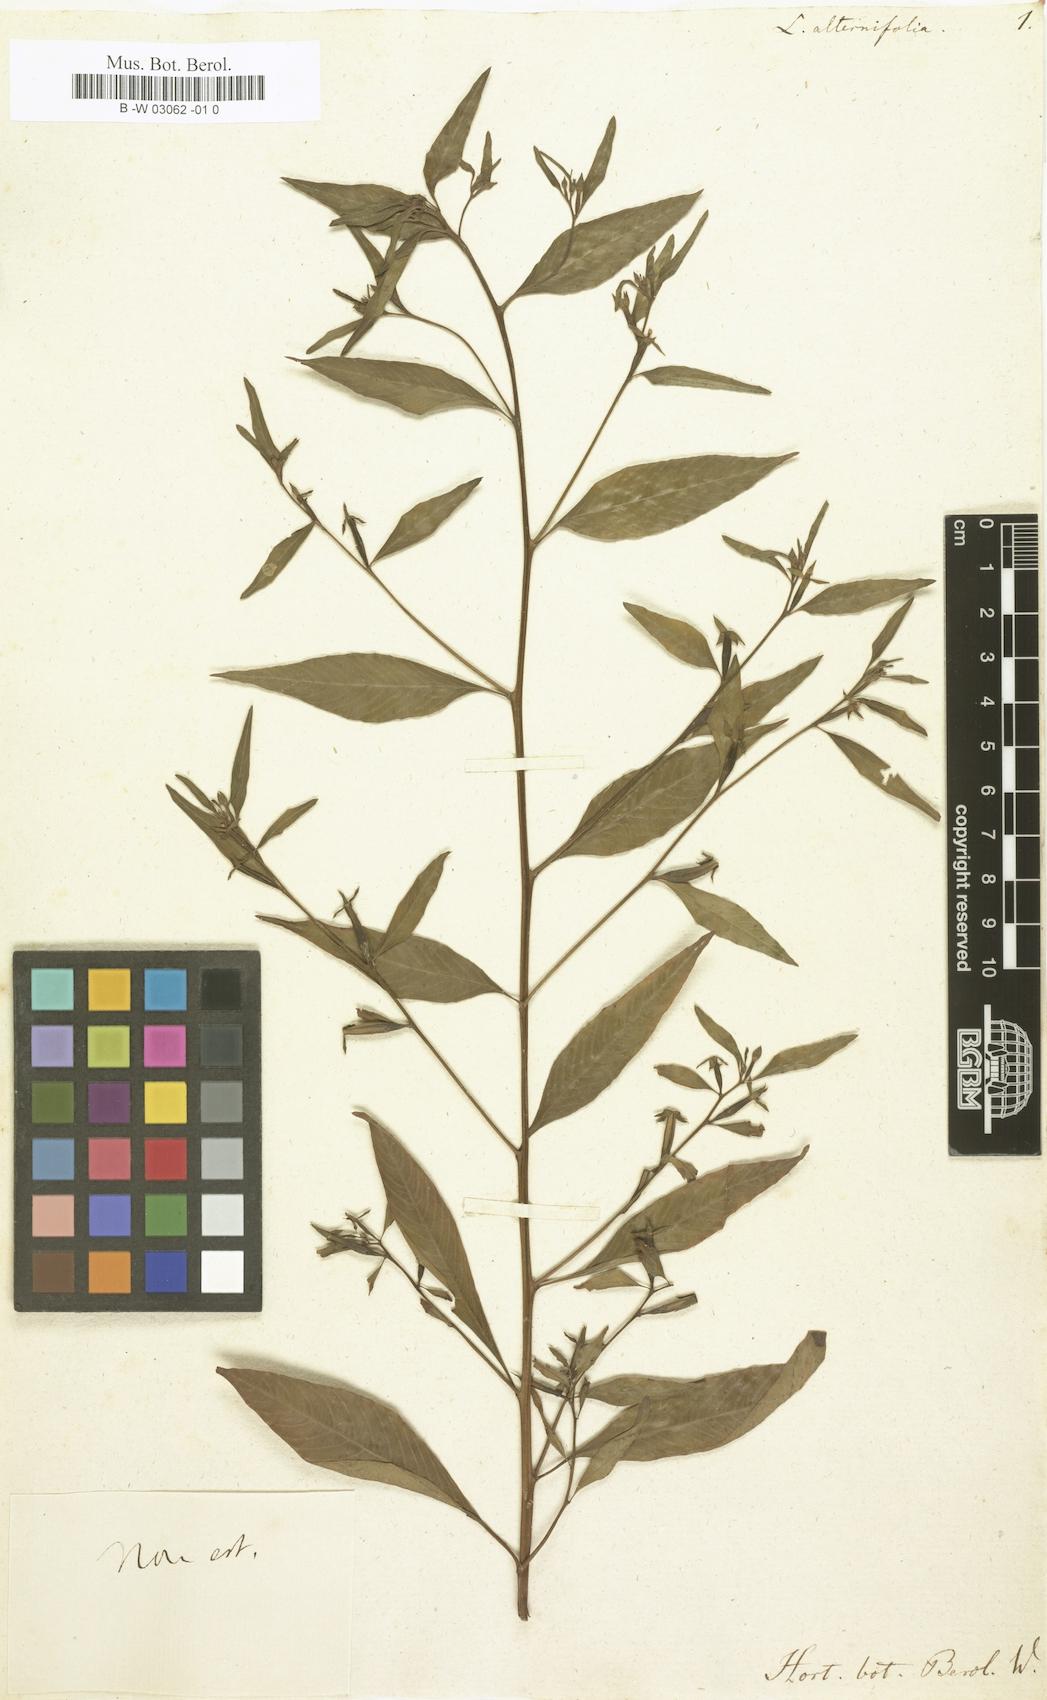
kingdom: Plantae
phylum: Tracheophyta
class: Magnoliopsida
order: Myrtales
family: Onagraceae
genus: Ludwigia
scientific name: Ludwigia alternifolia
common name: Rattlebox
